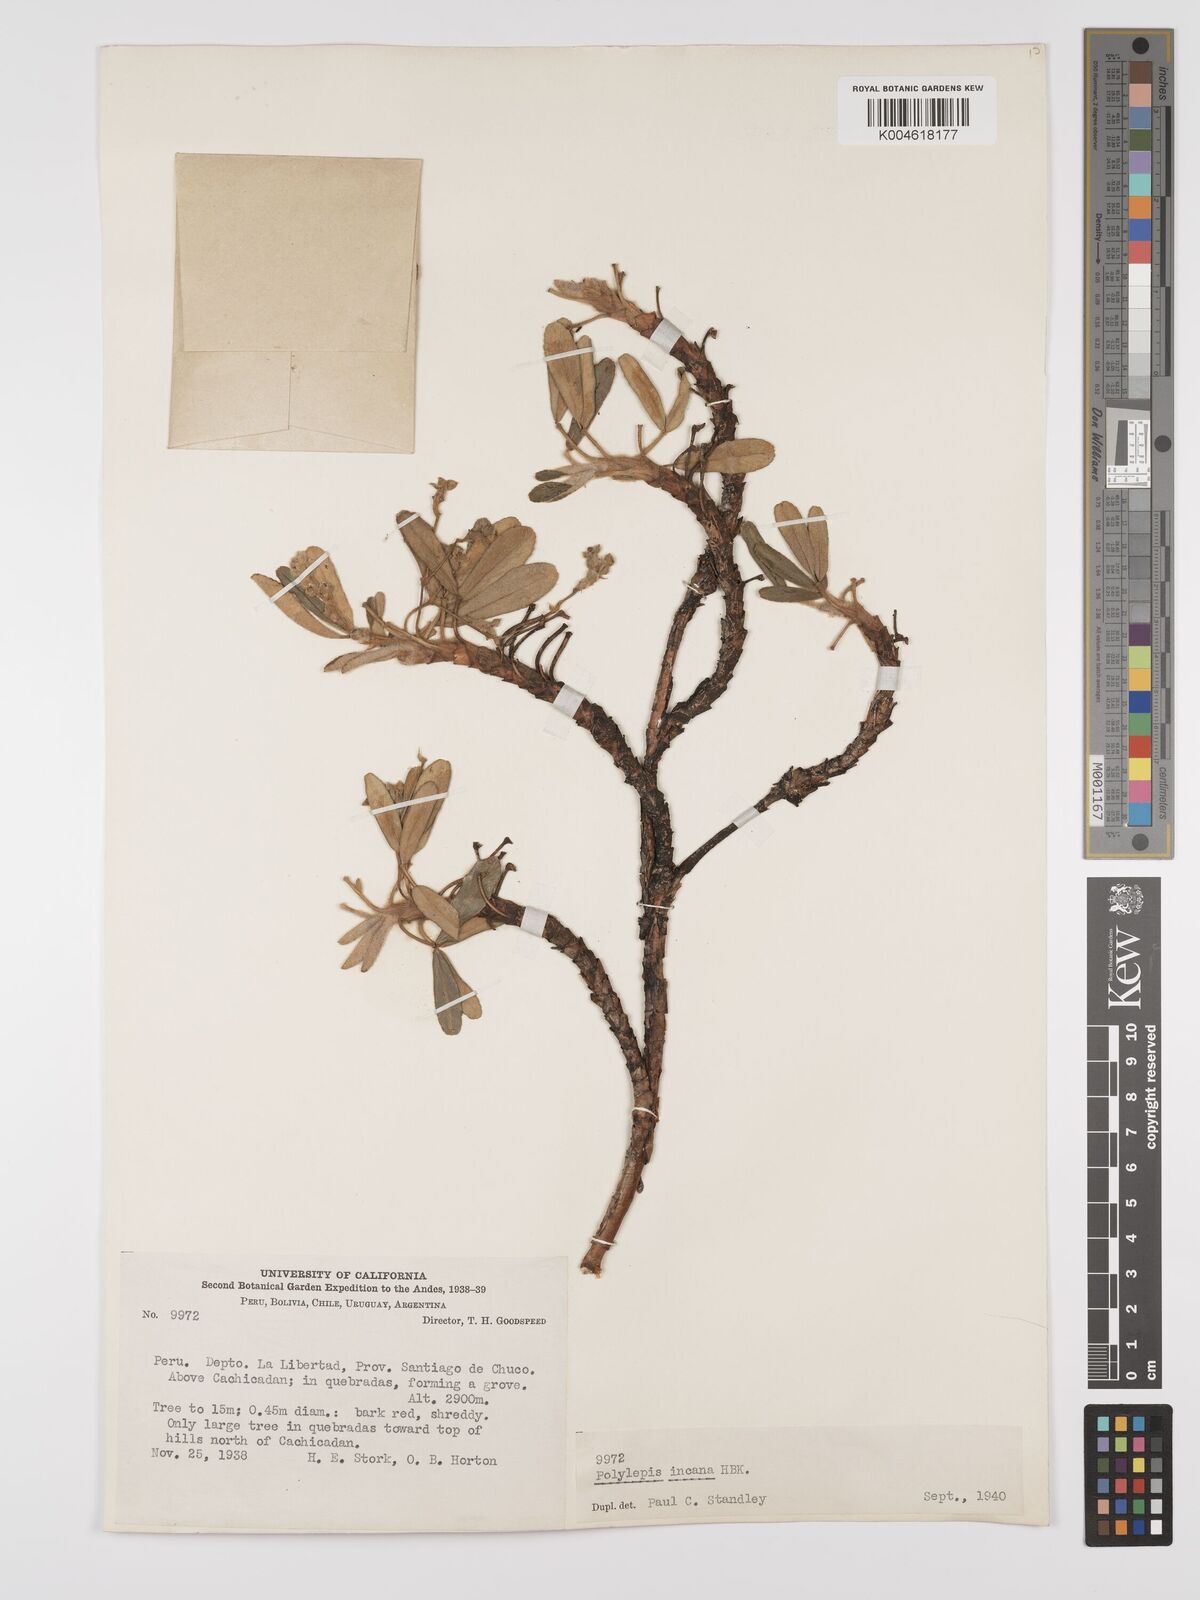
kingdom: Plantae
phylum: Tracheophyta
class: Magnoliopsida
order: Rosales
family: Rosaceae
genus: Polylepis
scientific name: Polylepis incana
